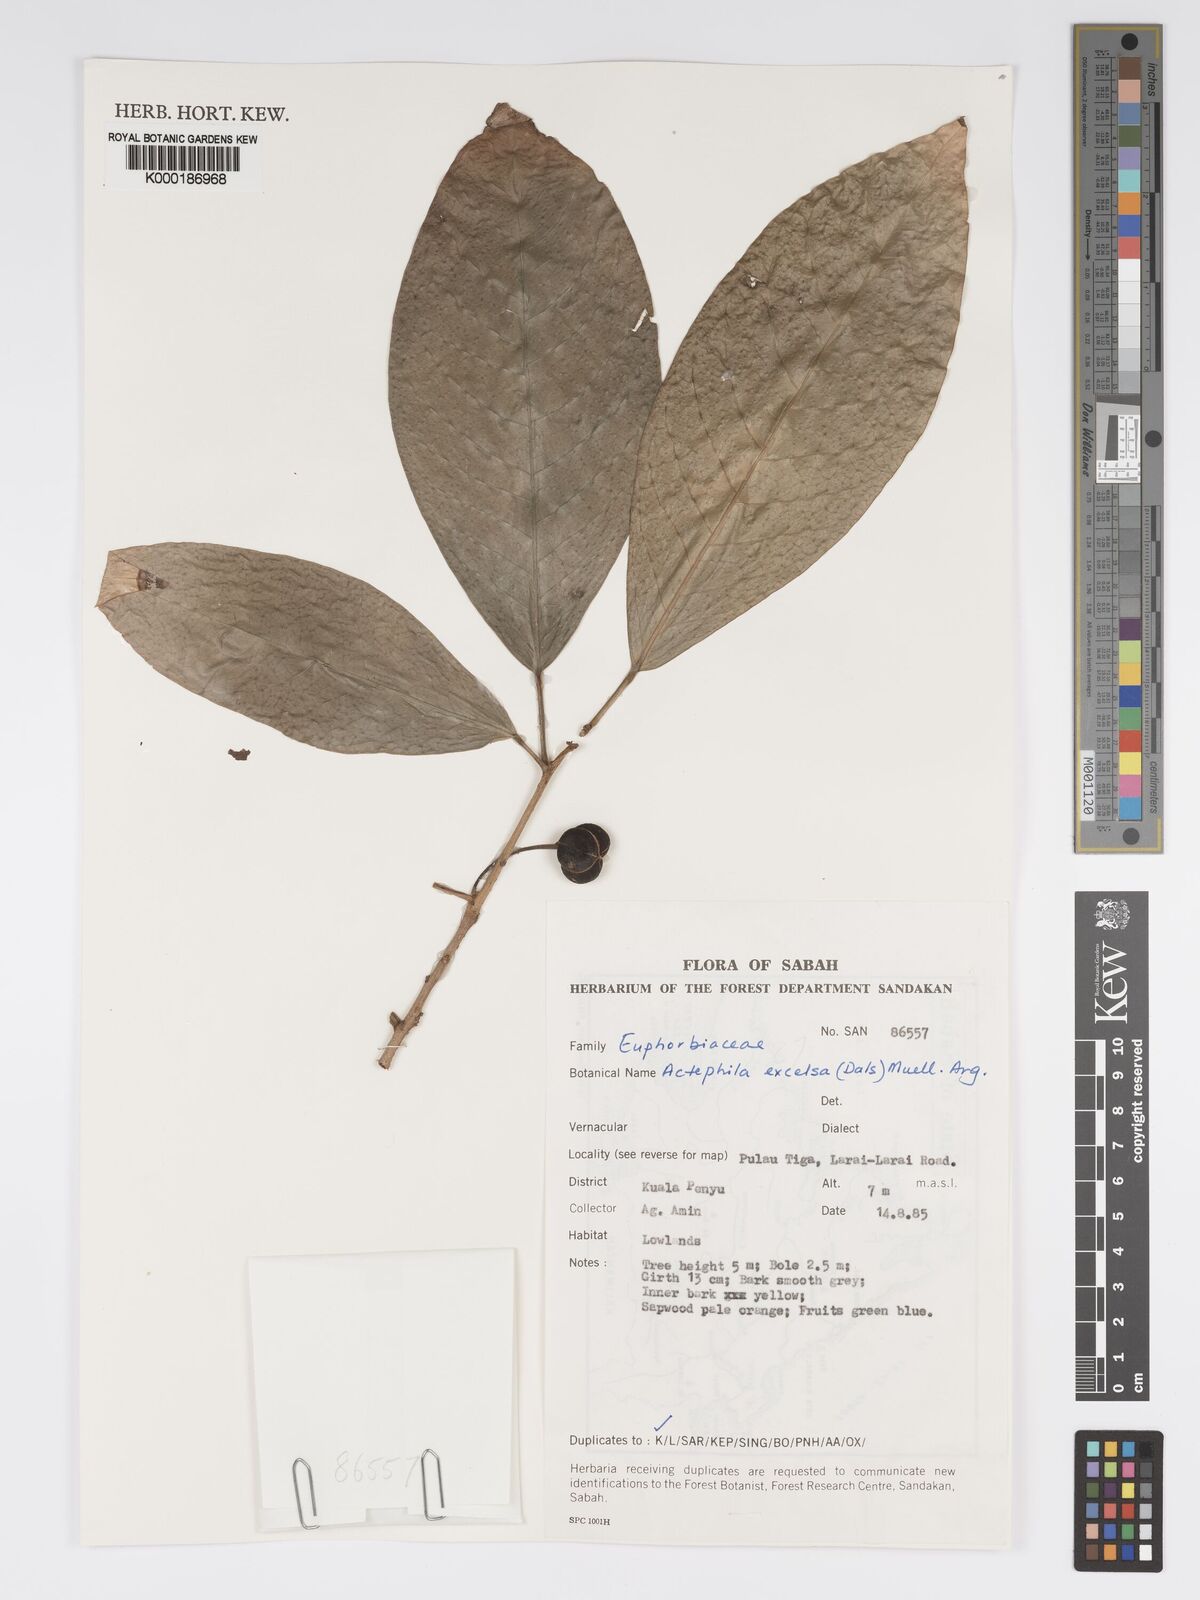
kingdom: Plantae
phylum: Tracheophyta
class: Magnoliopsida
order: Malpighiales
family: Phyllanthaceae
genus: Actephila
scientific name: Actephila
